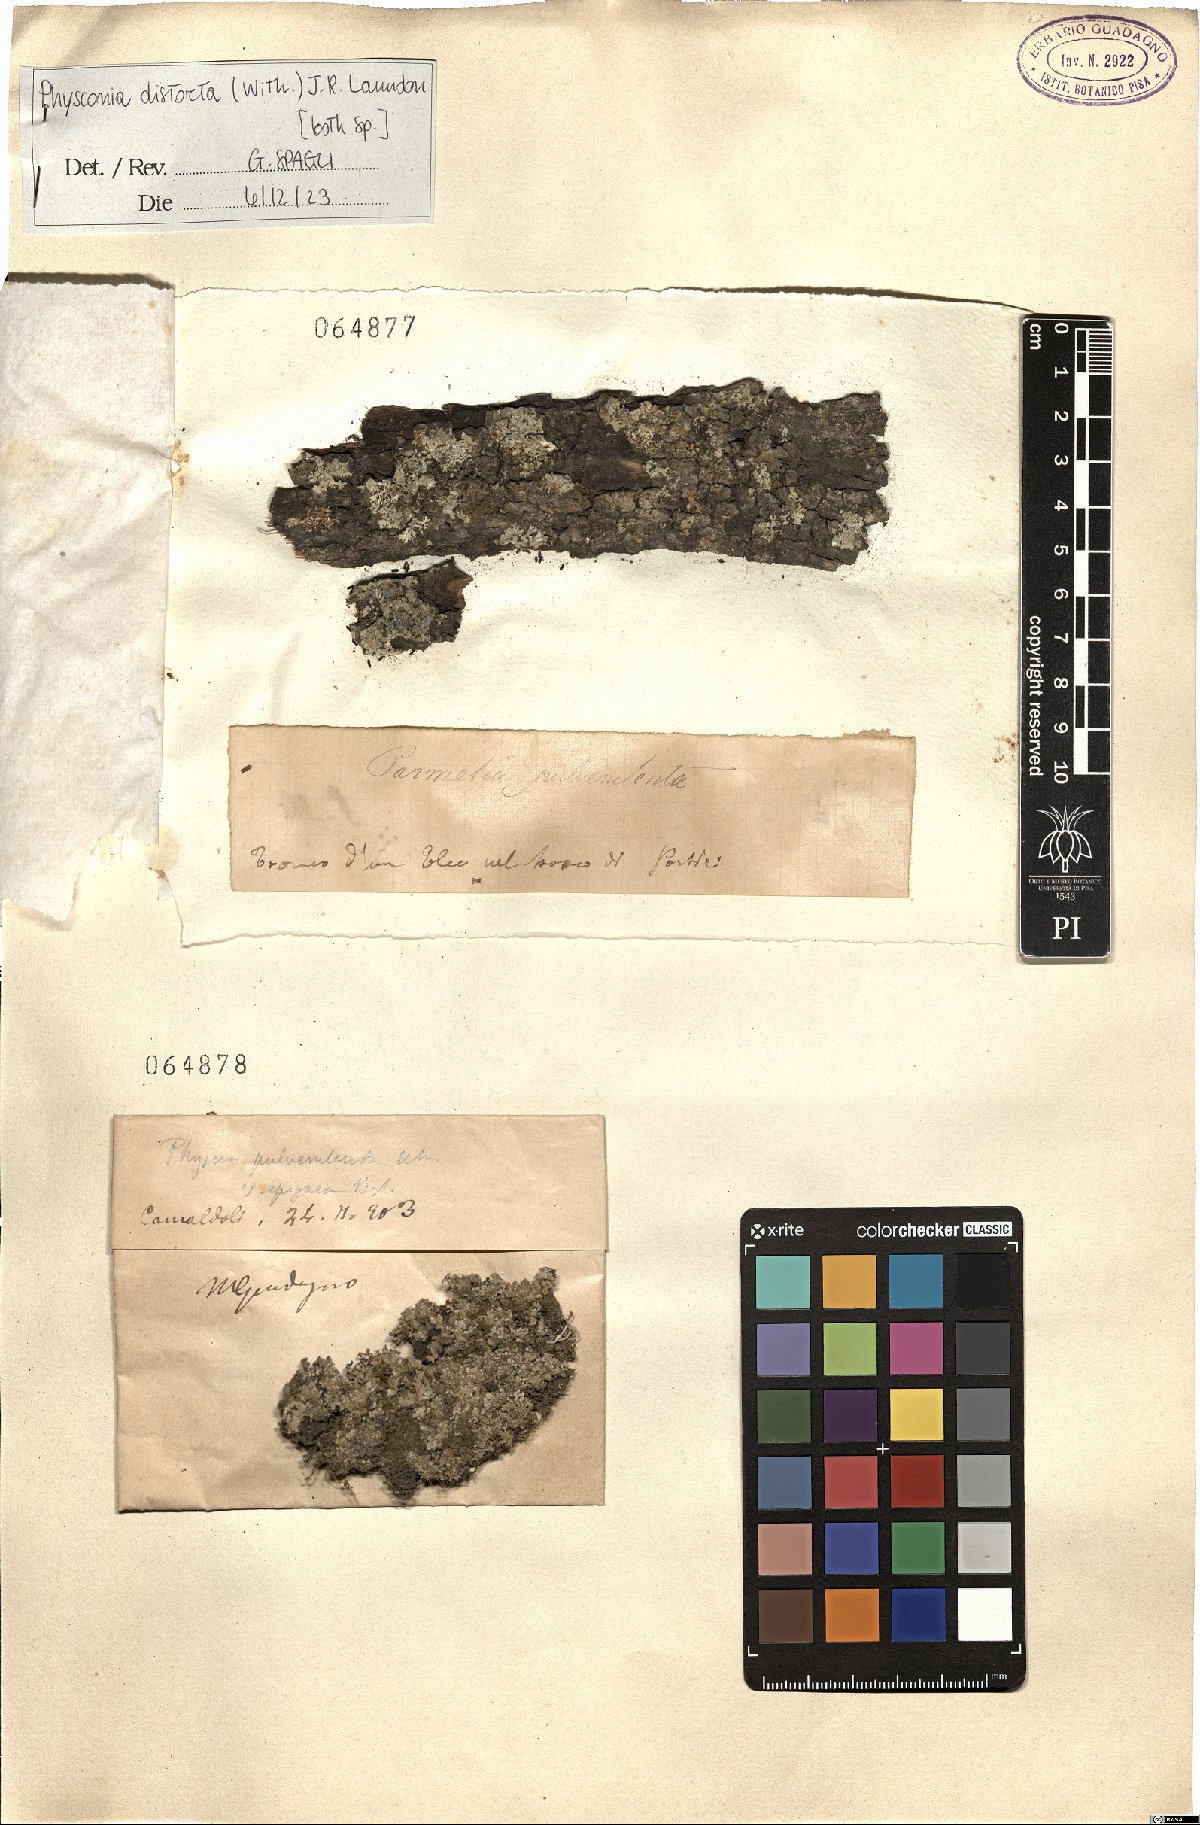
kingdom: Fungi
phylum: Ascomycota
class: Lecanoromycetes
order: Caliciales
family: Physciaceae
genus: Physconia
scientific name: Physconia distorta
